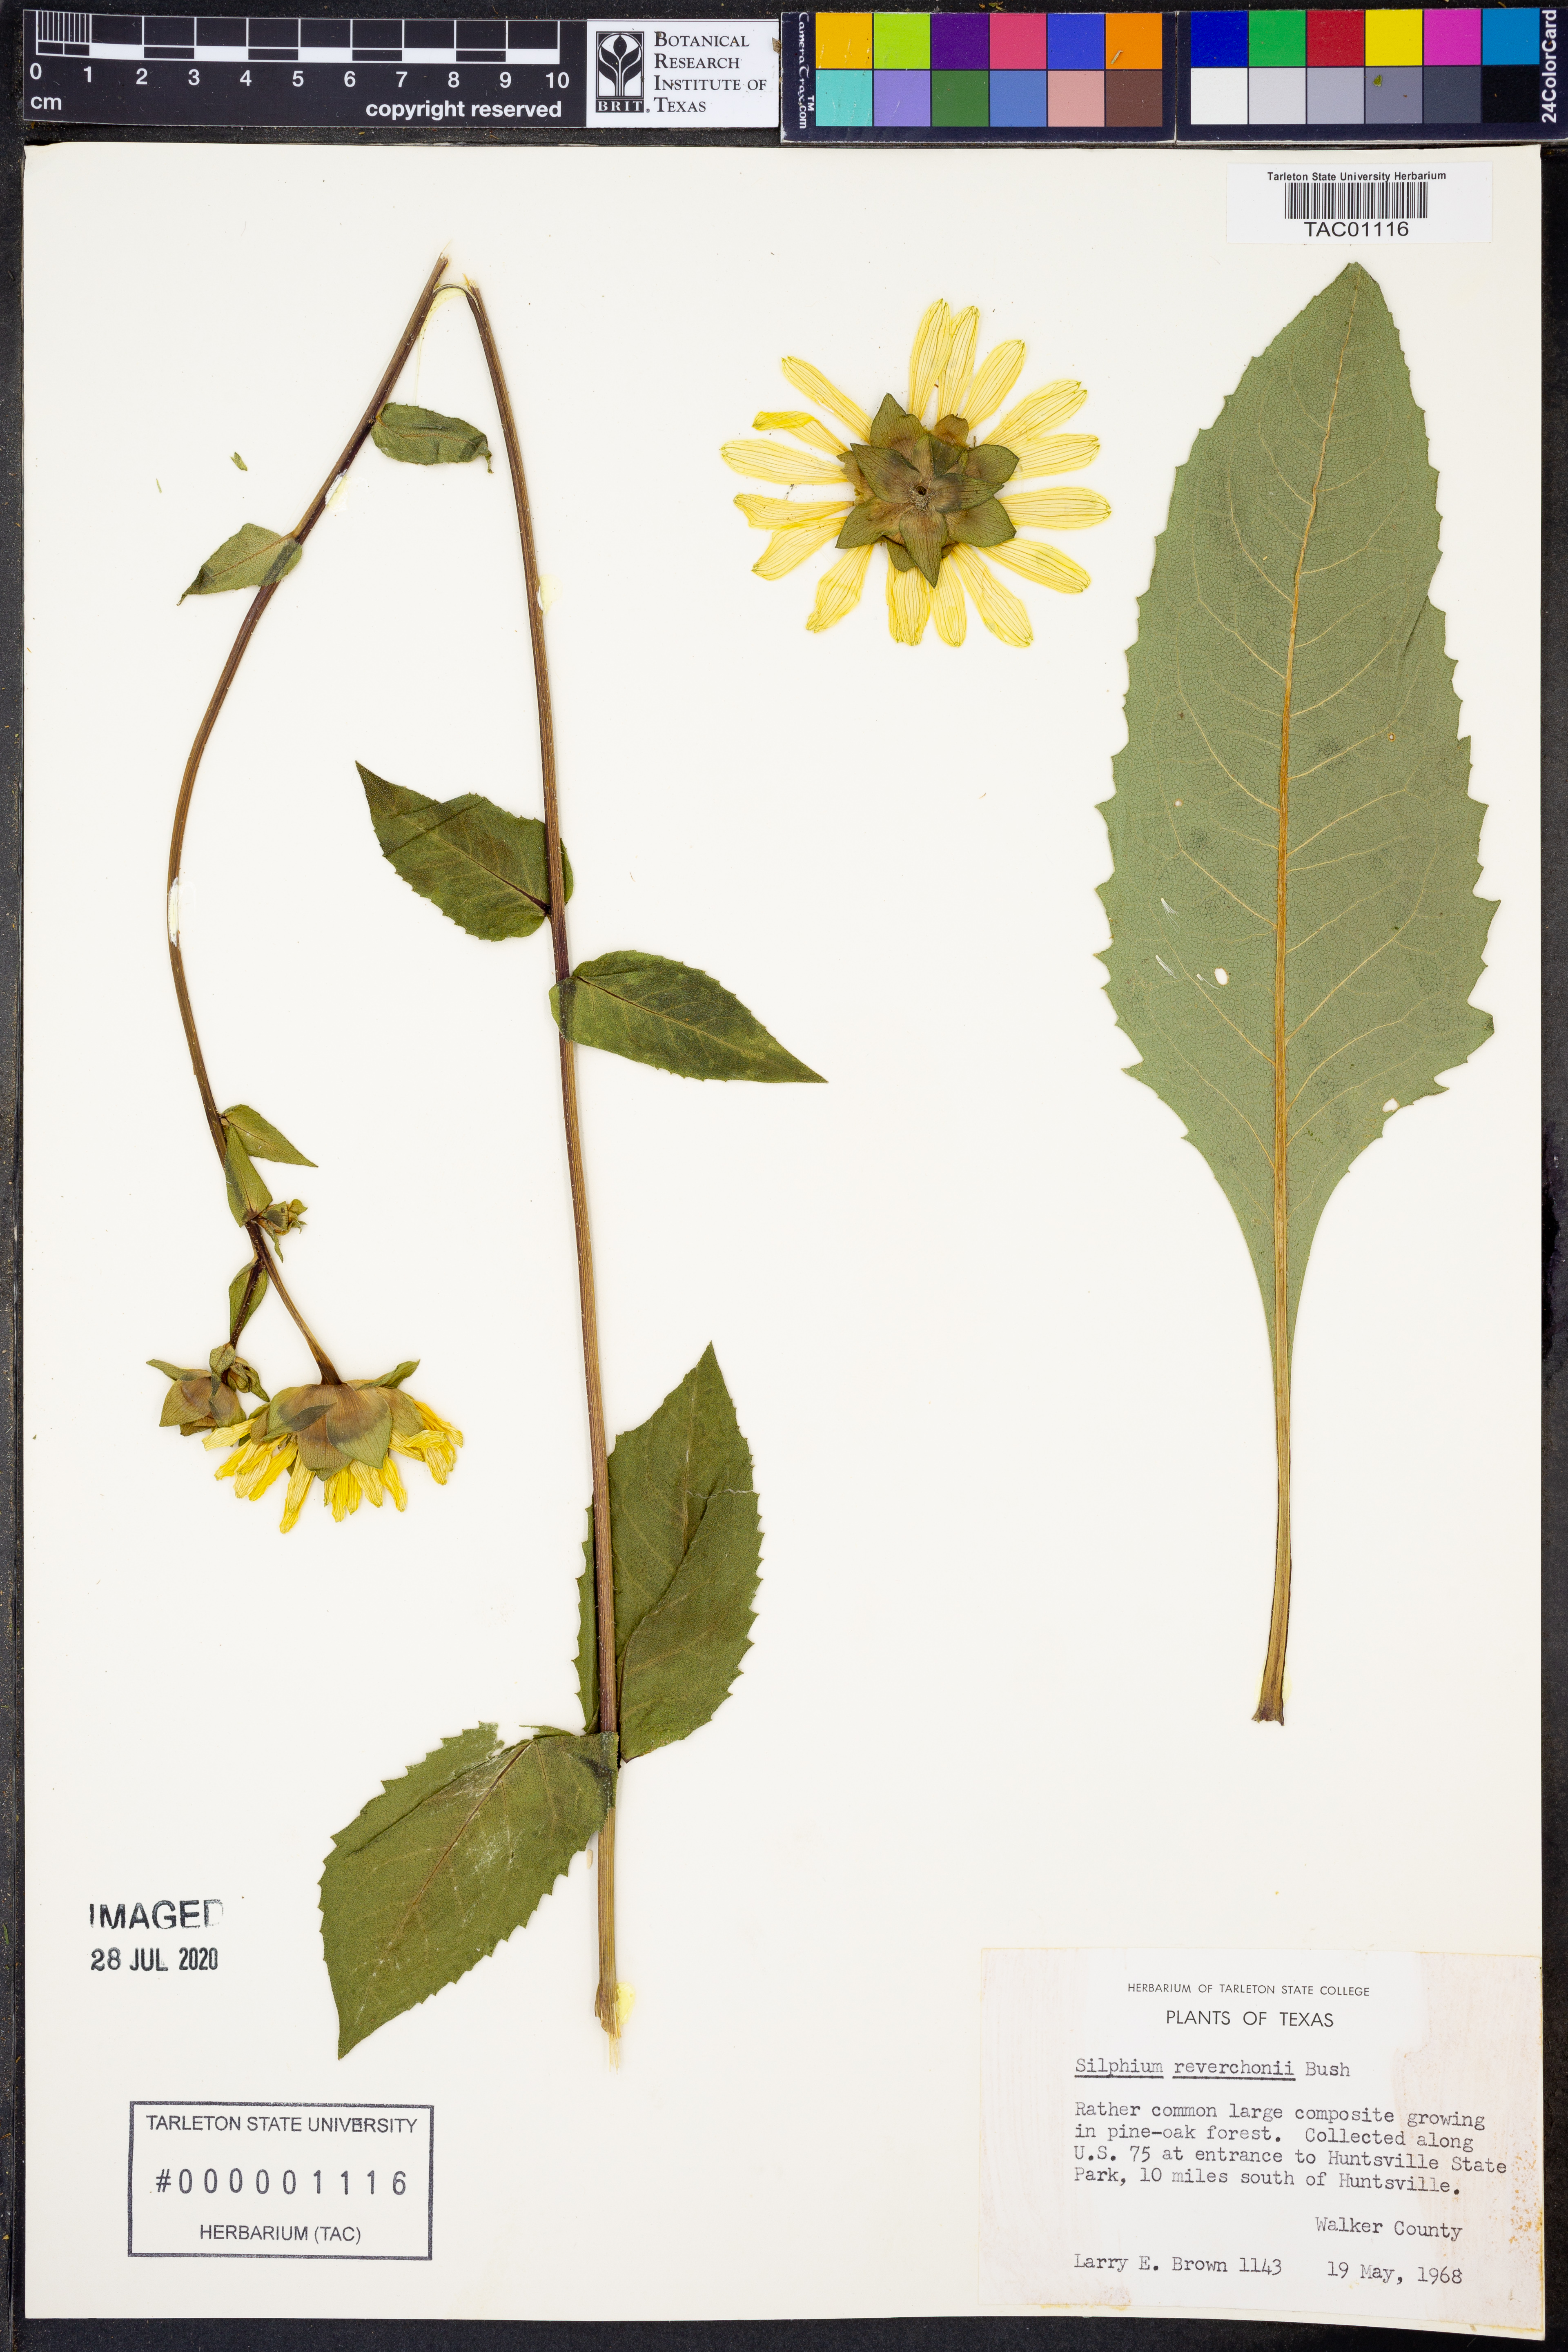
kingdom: Plantae
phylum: Tracheophyta
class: Magnoliopsida
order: Asterales
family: Asteraceae
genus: Silphium
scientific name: Silphium radula
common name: Roughleaf rosinweed
